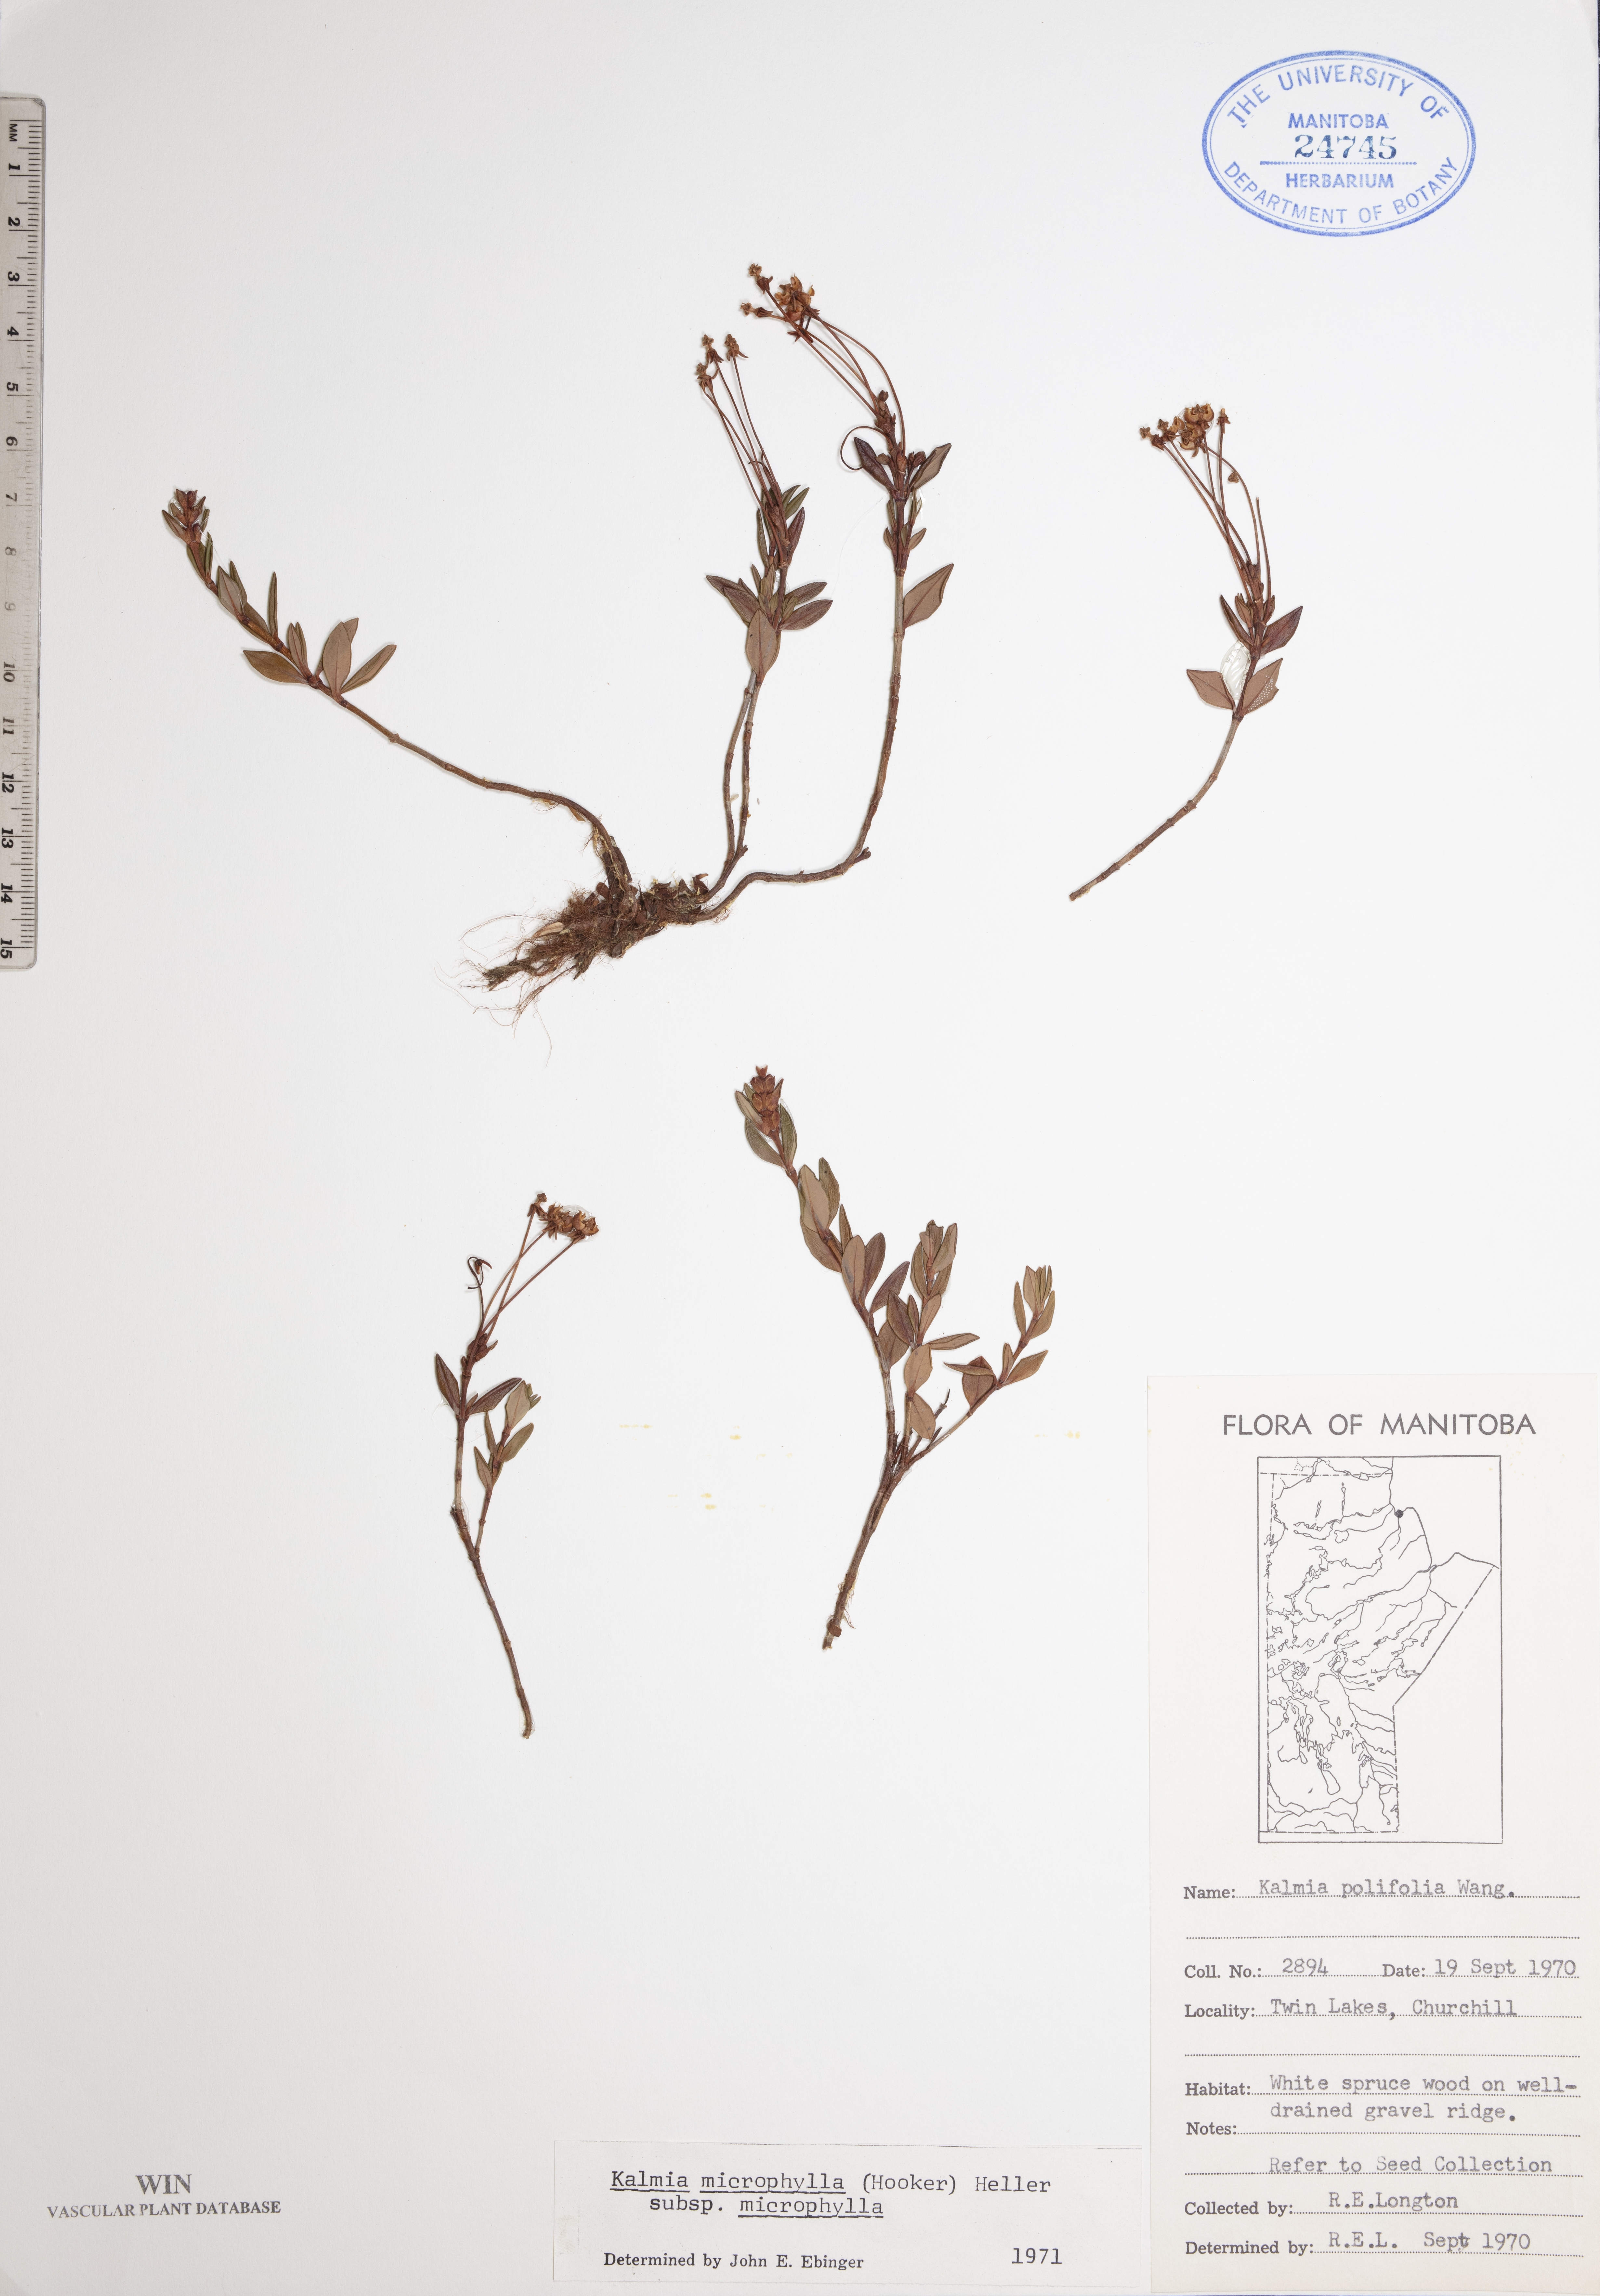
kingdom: Plantae
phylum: Tracheophyta
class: Magnoliopsida
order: Ericales
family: Ericaceae
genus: Kalmia
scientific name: Kalmia microphylla
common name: Alpine bog laurel
